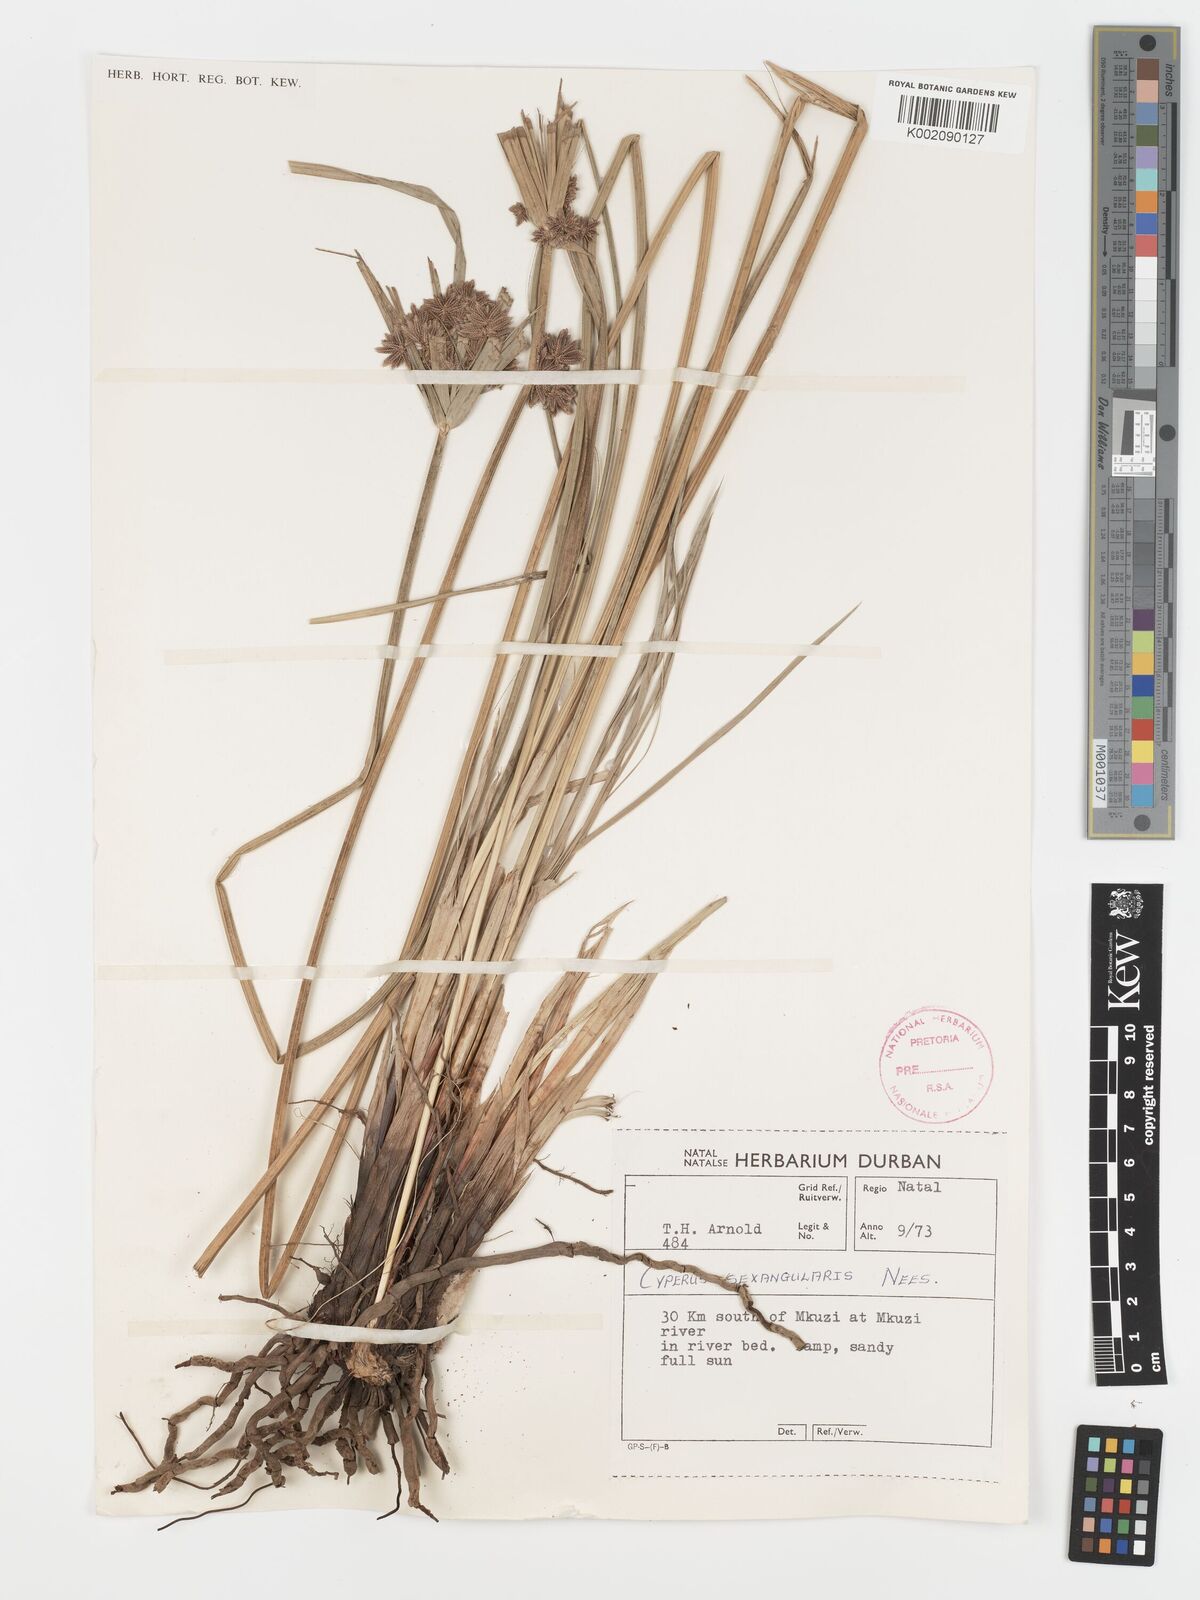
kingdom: Plantae
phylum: Tracheophyta
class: Liliopsida
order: Poales
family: Cyperaceae
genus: Cyperus
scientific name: Cyperus sexangularis
